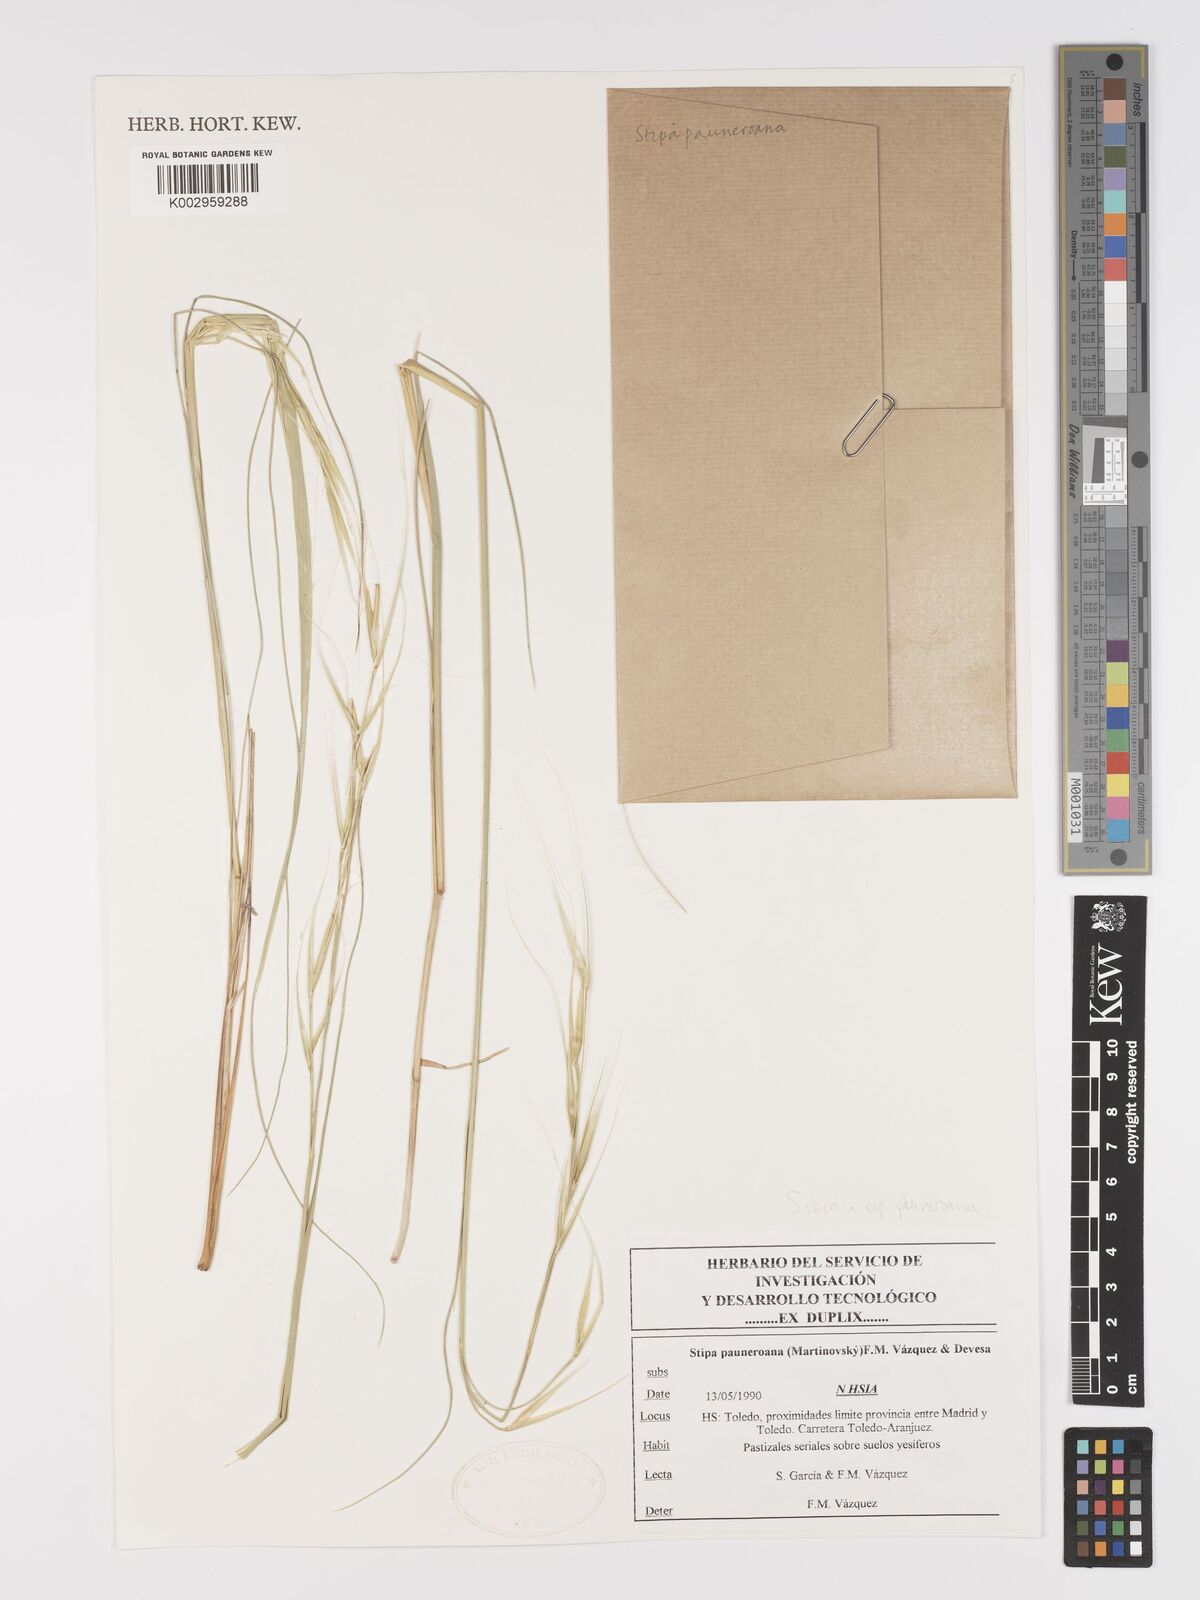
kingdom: Plantae
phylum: Tracheophyta
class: Liliopsida
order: Poales
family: Poaceae
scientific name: Poaceae
